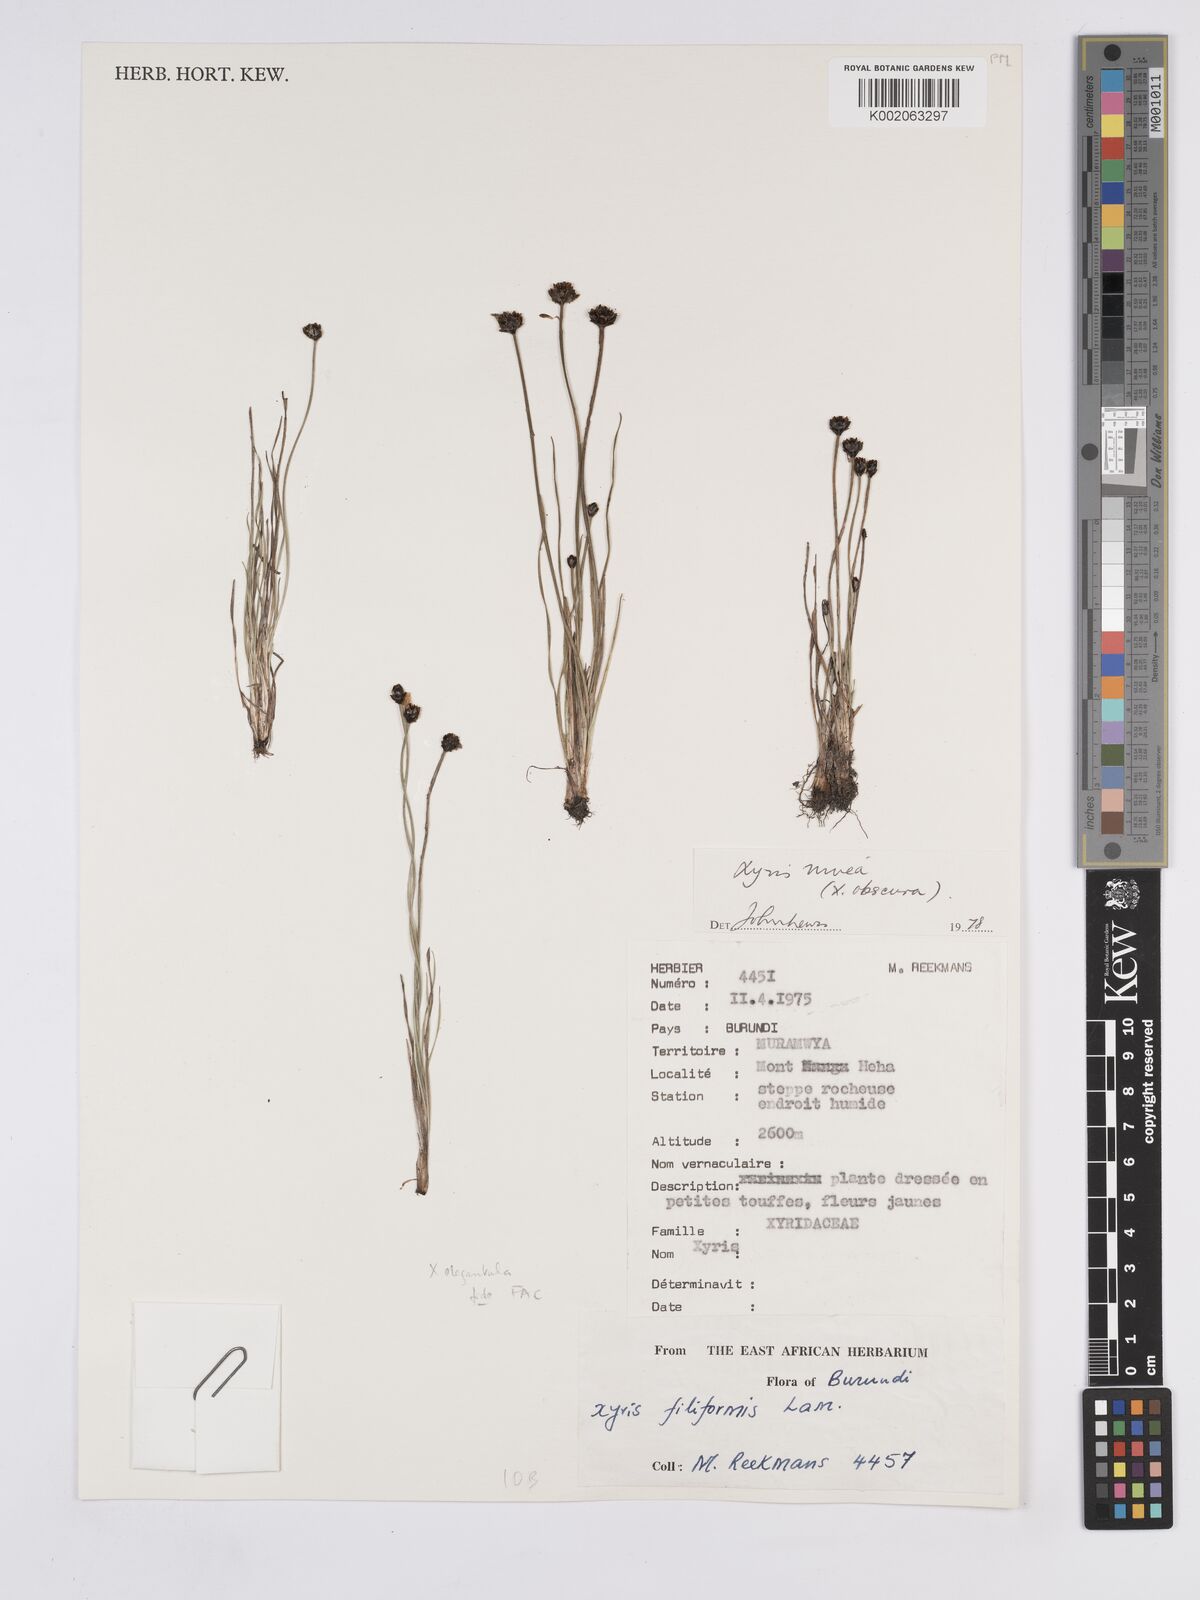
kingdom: Plantae
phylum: Tracheophyta
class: Liliopsida
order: Poales
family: Xyridaceae
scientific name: Xyridaceae
